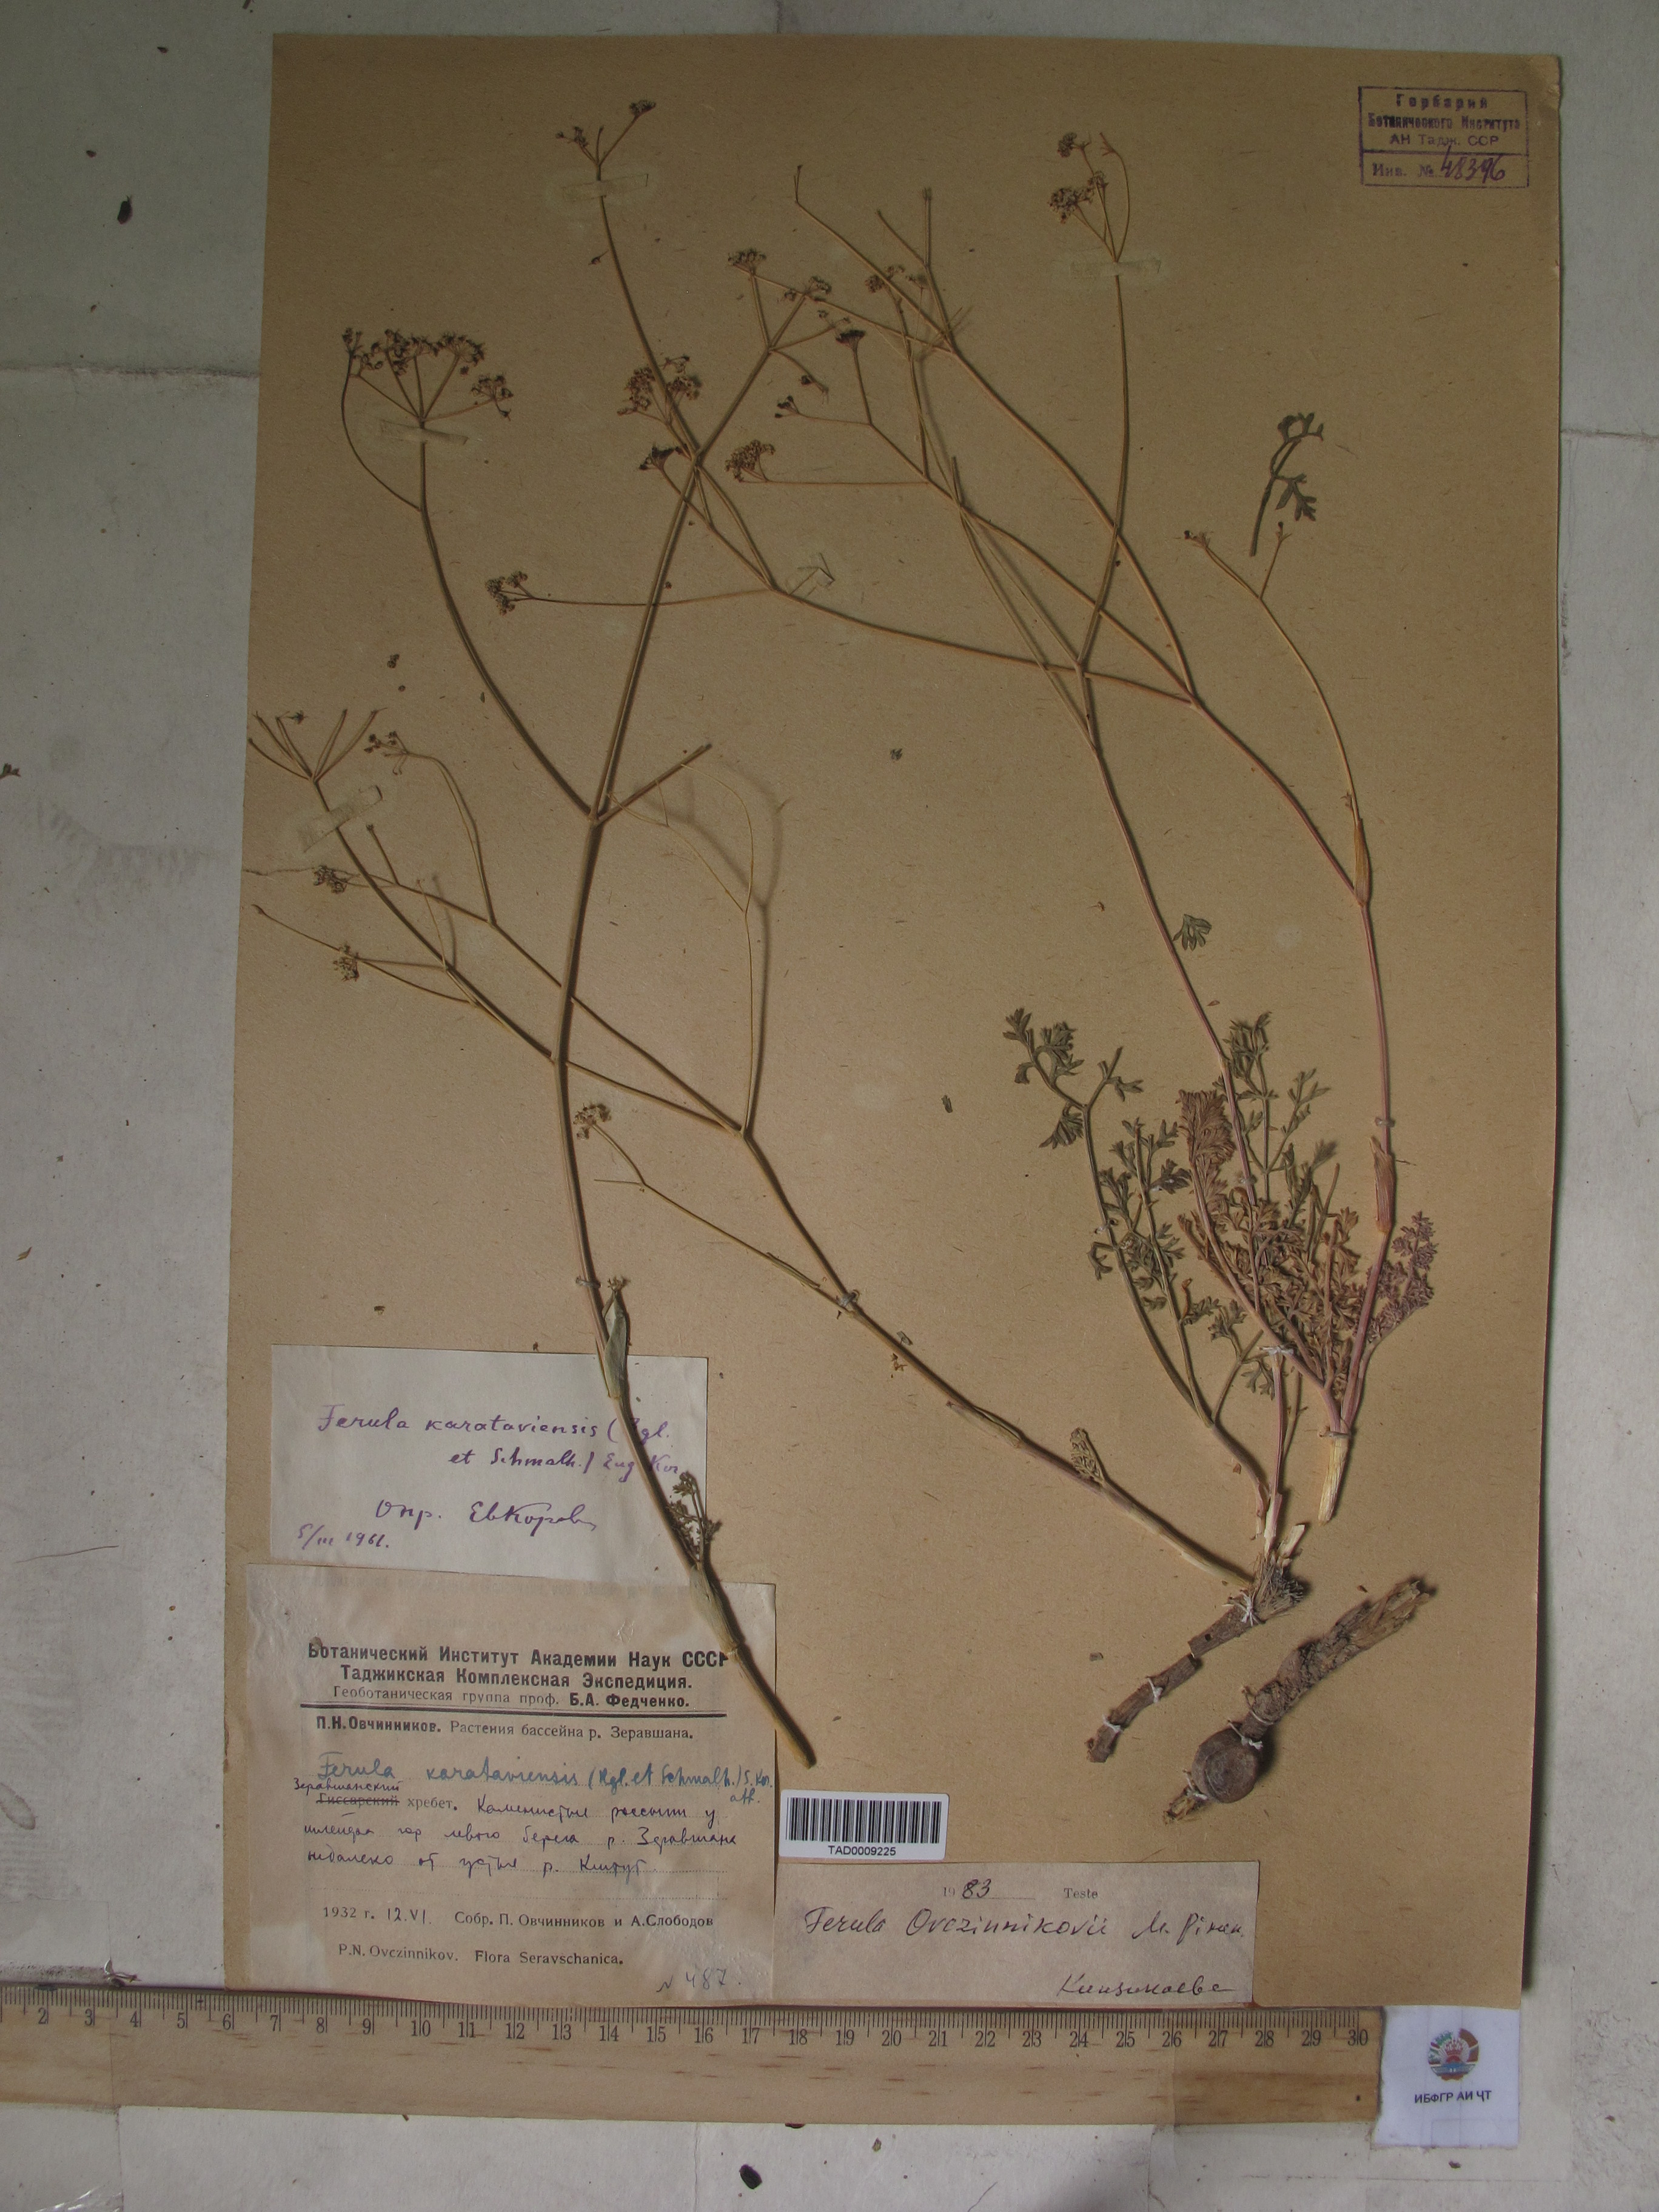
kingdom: Plantae
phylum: Tracheophyta
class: Magnoliopsida
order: Apiales
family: Apiaceae
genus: Ferula
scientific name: Ferula karataviensis
